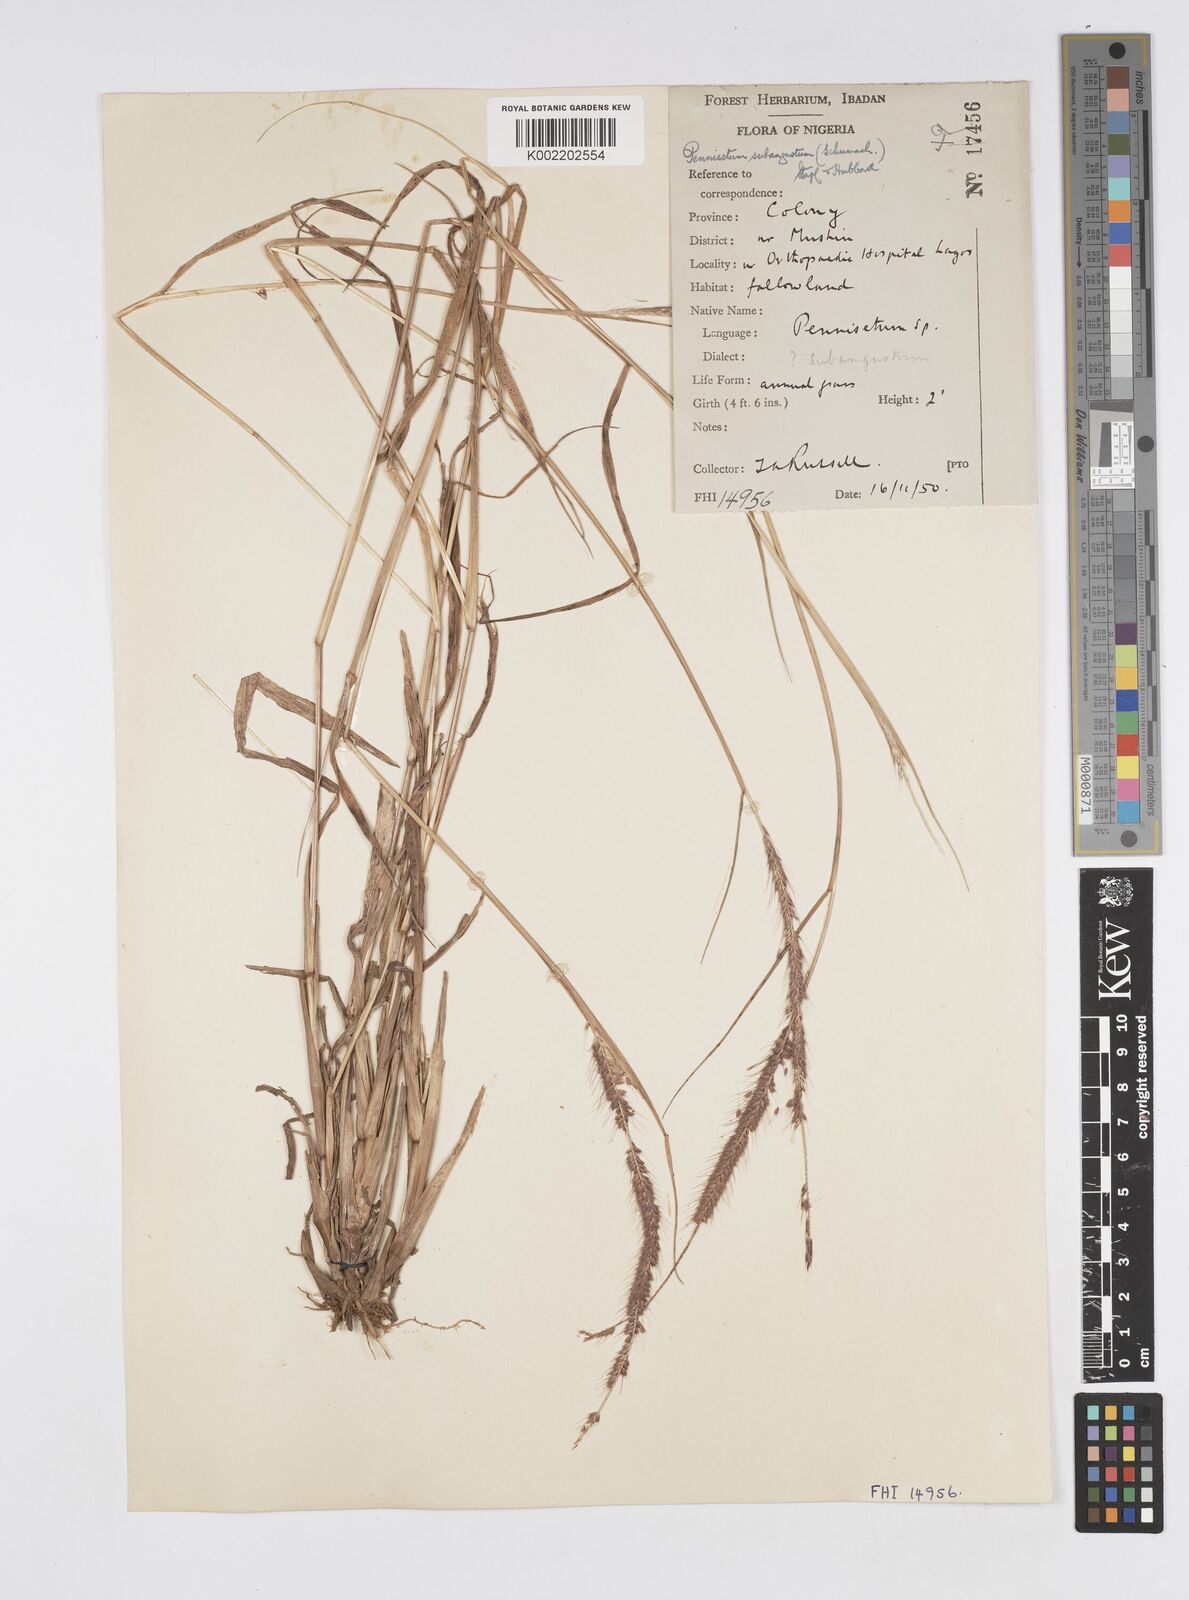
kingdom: Plantae
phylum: Tracheophyta
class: Liliopsida
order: Poales
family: Poaceae
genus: Setaria
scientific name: Setaria parviflora
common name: Knotroot bristle-grass
